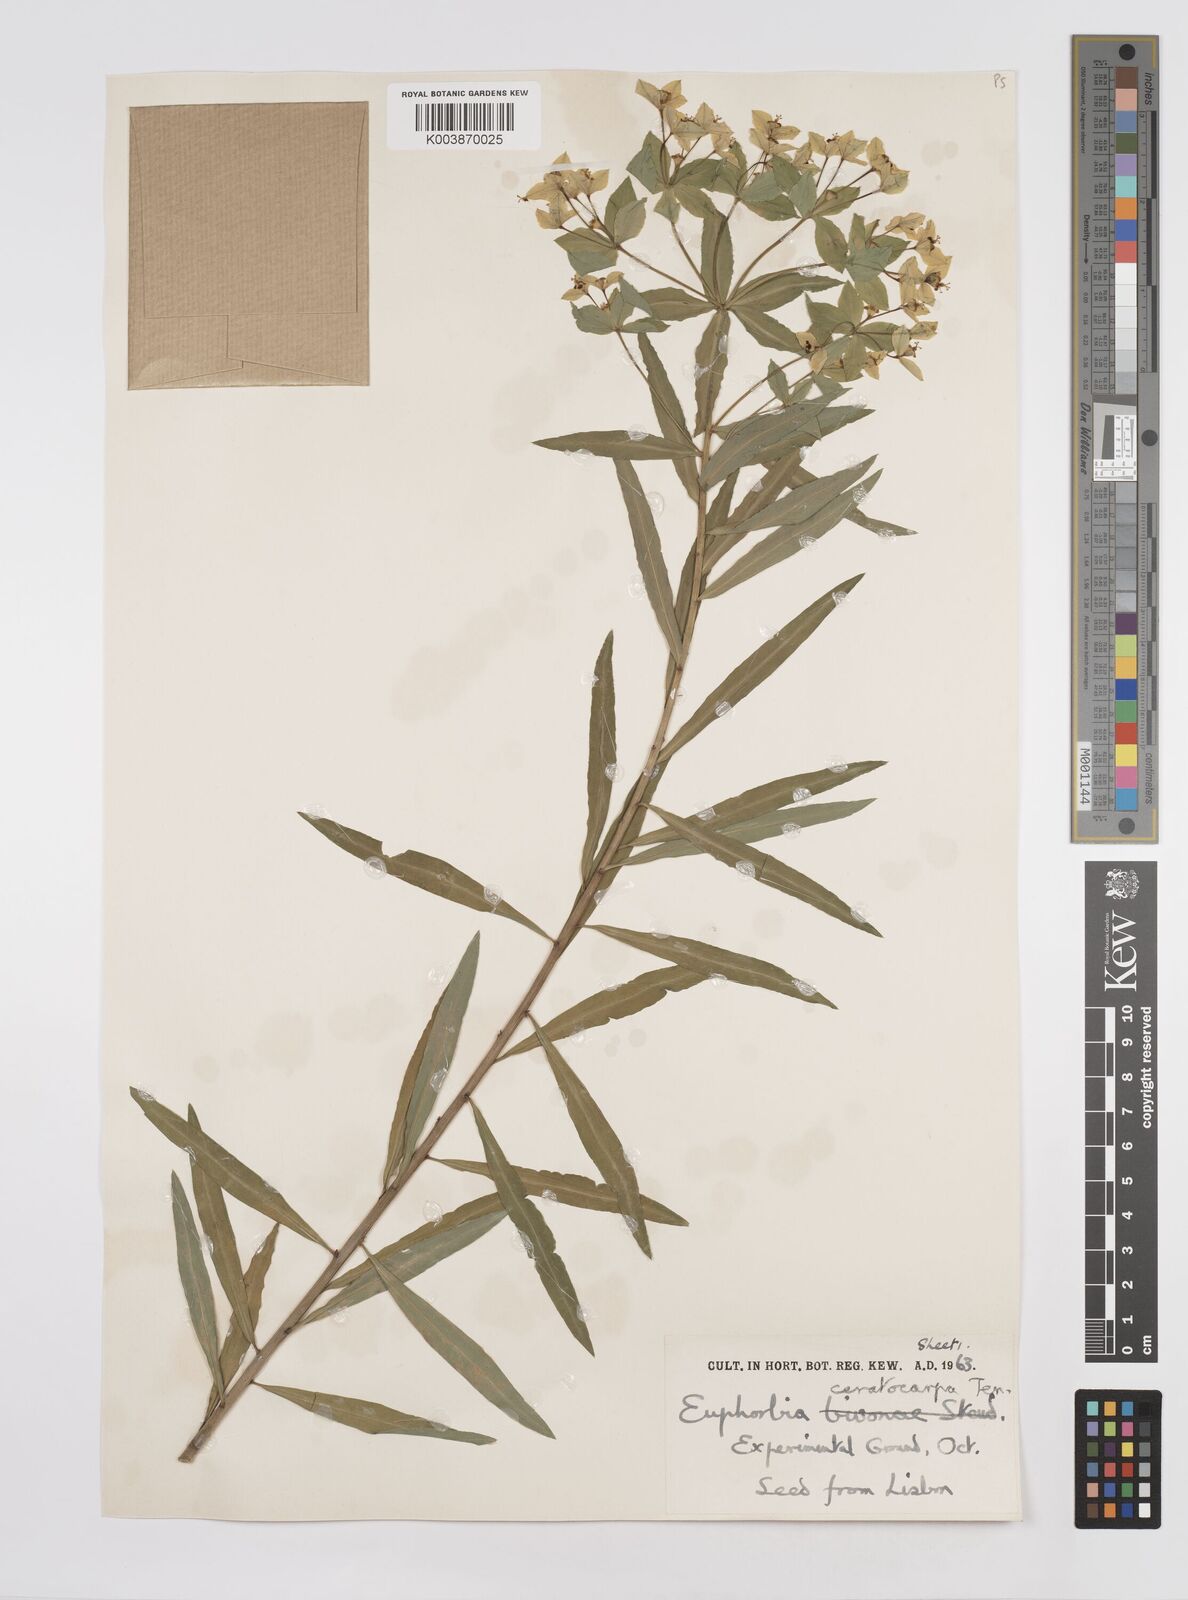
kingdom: Plantae
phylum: Tracheophyta
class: Magnoliopsida
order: Malpighiales
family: Euphorbiaceae
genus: Euphorbia
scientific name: Euphorbia ceratocarpa
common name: Horned spurge
